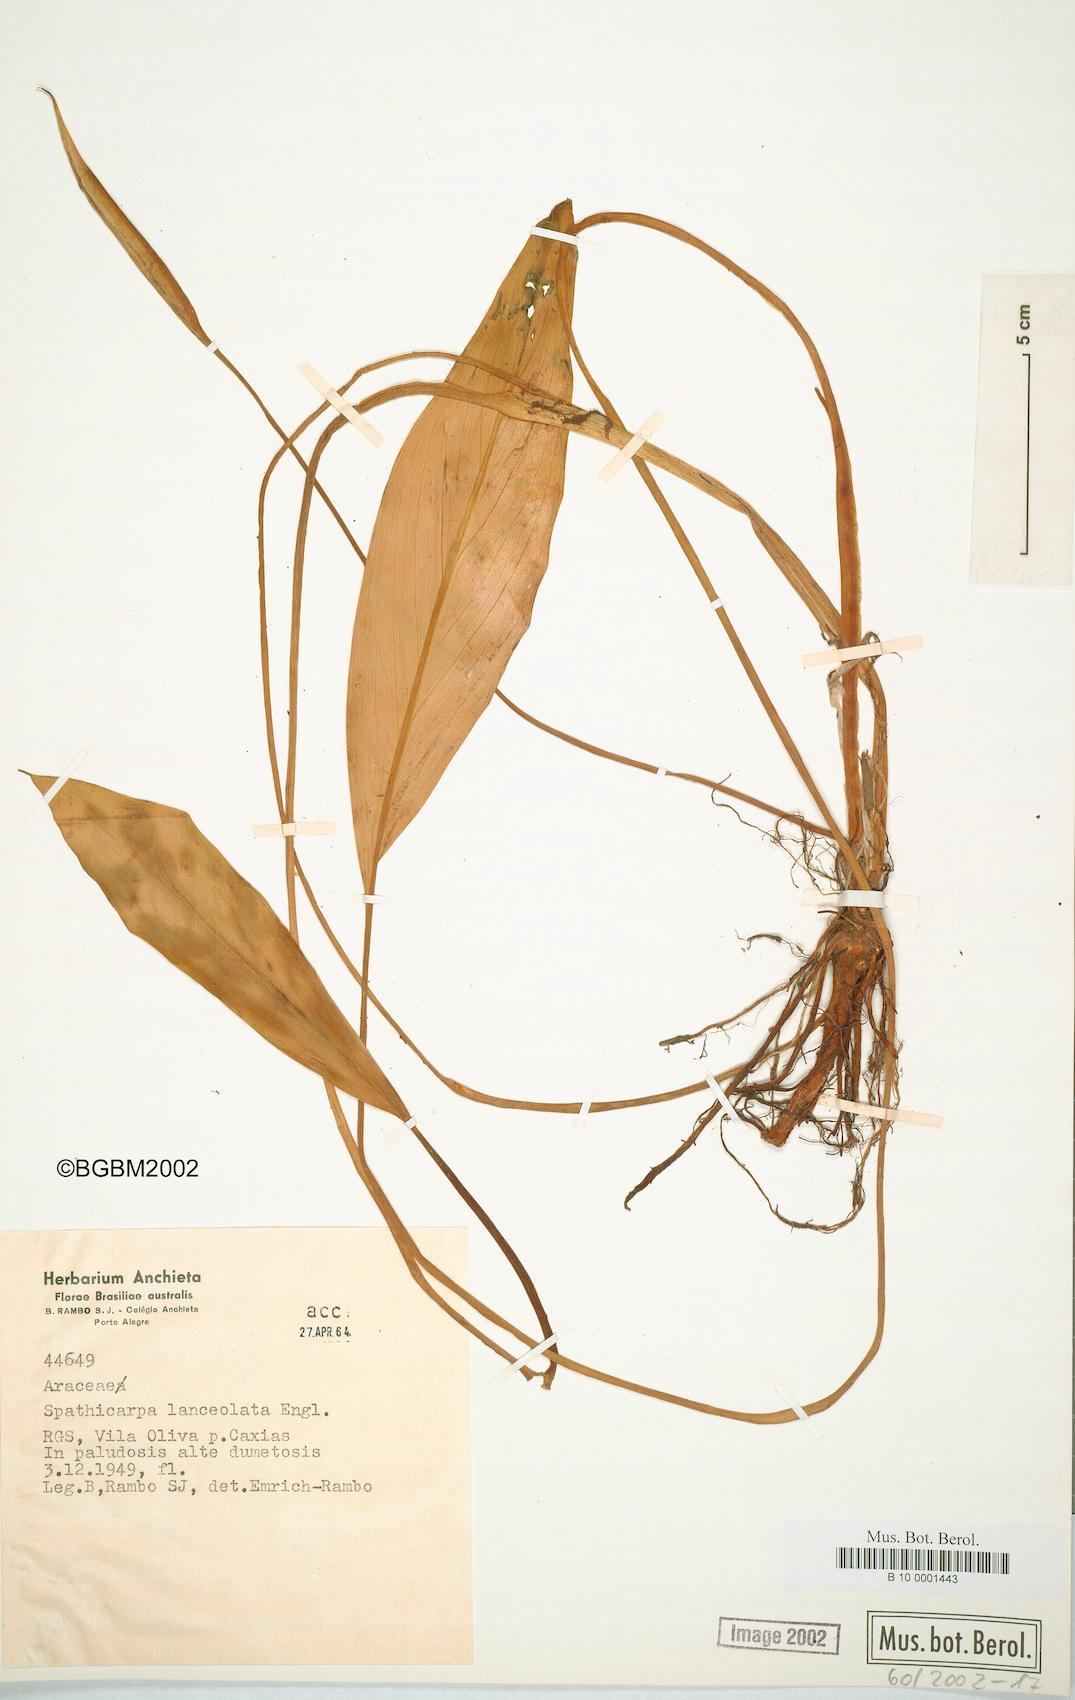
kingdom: Plantae
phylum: Tracheophyta
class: Liliopsida
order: Alismatales
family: Araceae
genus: Spathicarpa
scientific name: Spathicarpa lanceolata
